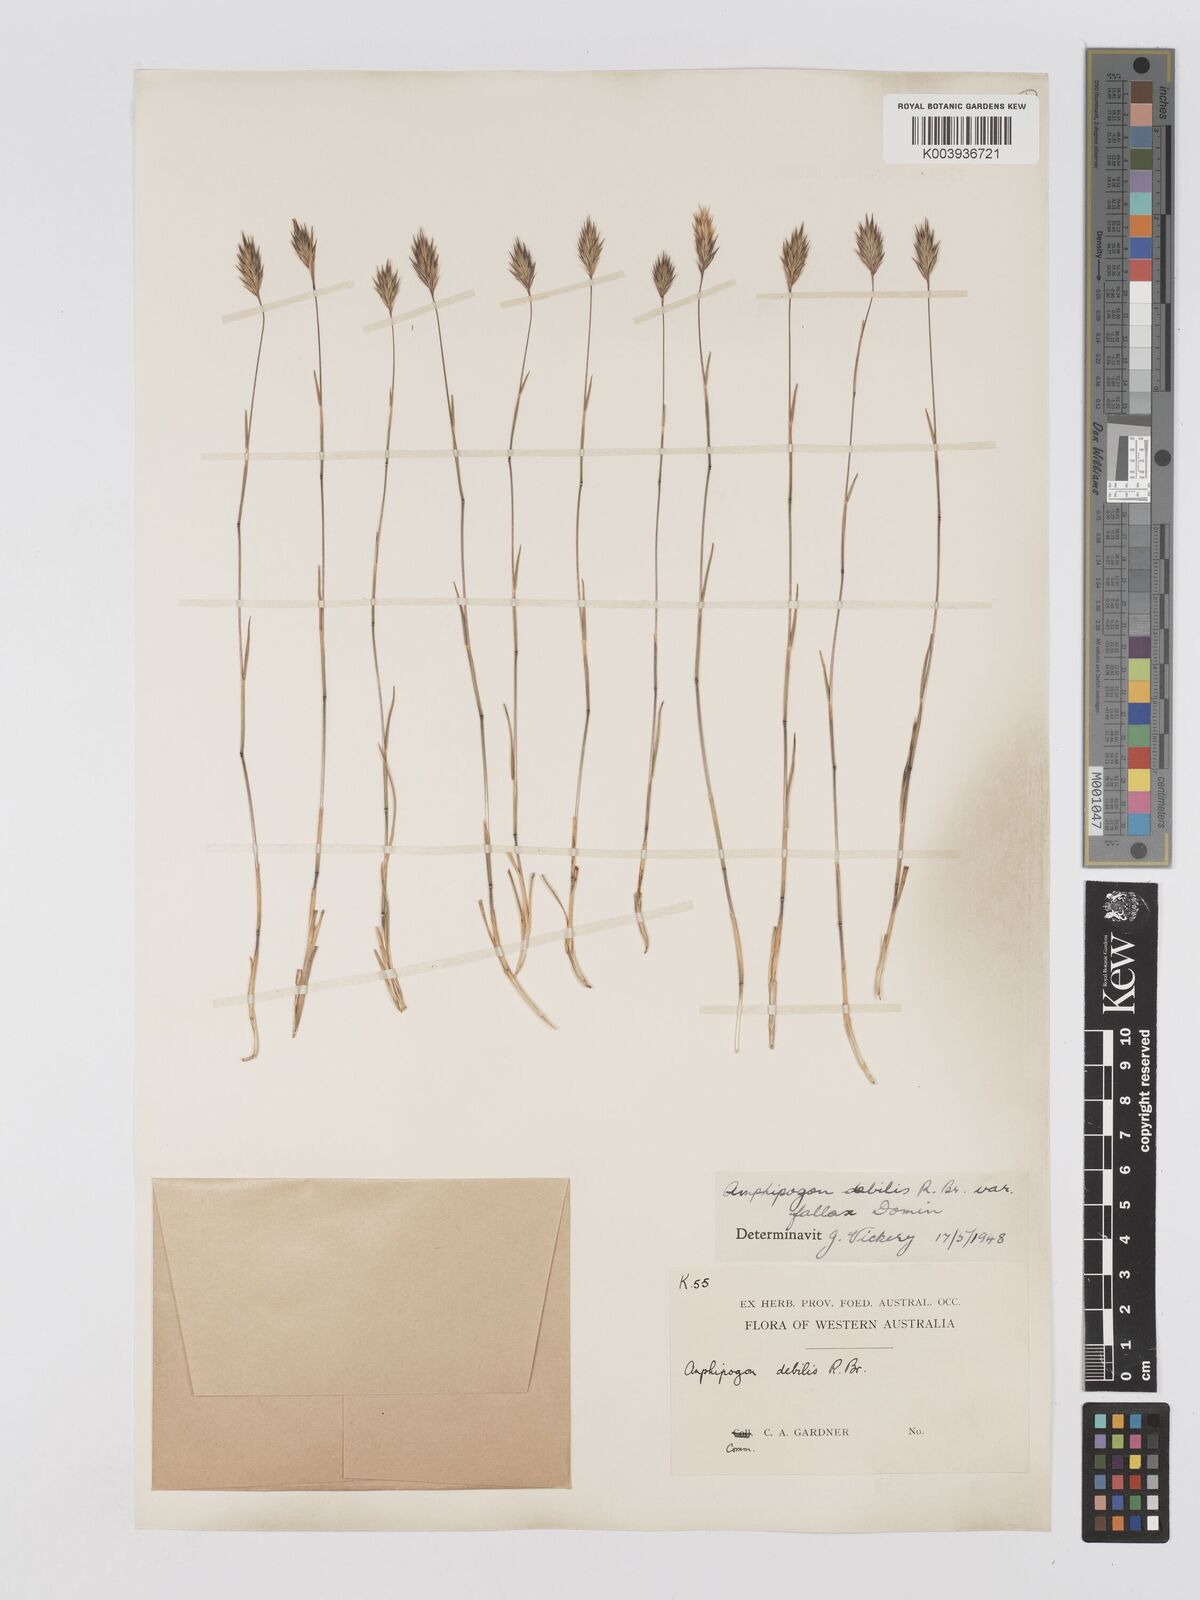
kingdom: Plantae
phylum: Tracheophyta
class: Liliopsida
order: Poales
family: Poaceae
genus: Amphipogon
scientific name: Amphipogon debilis
